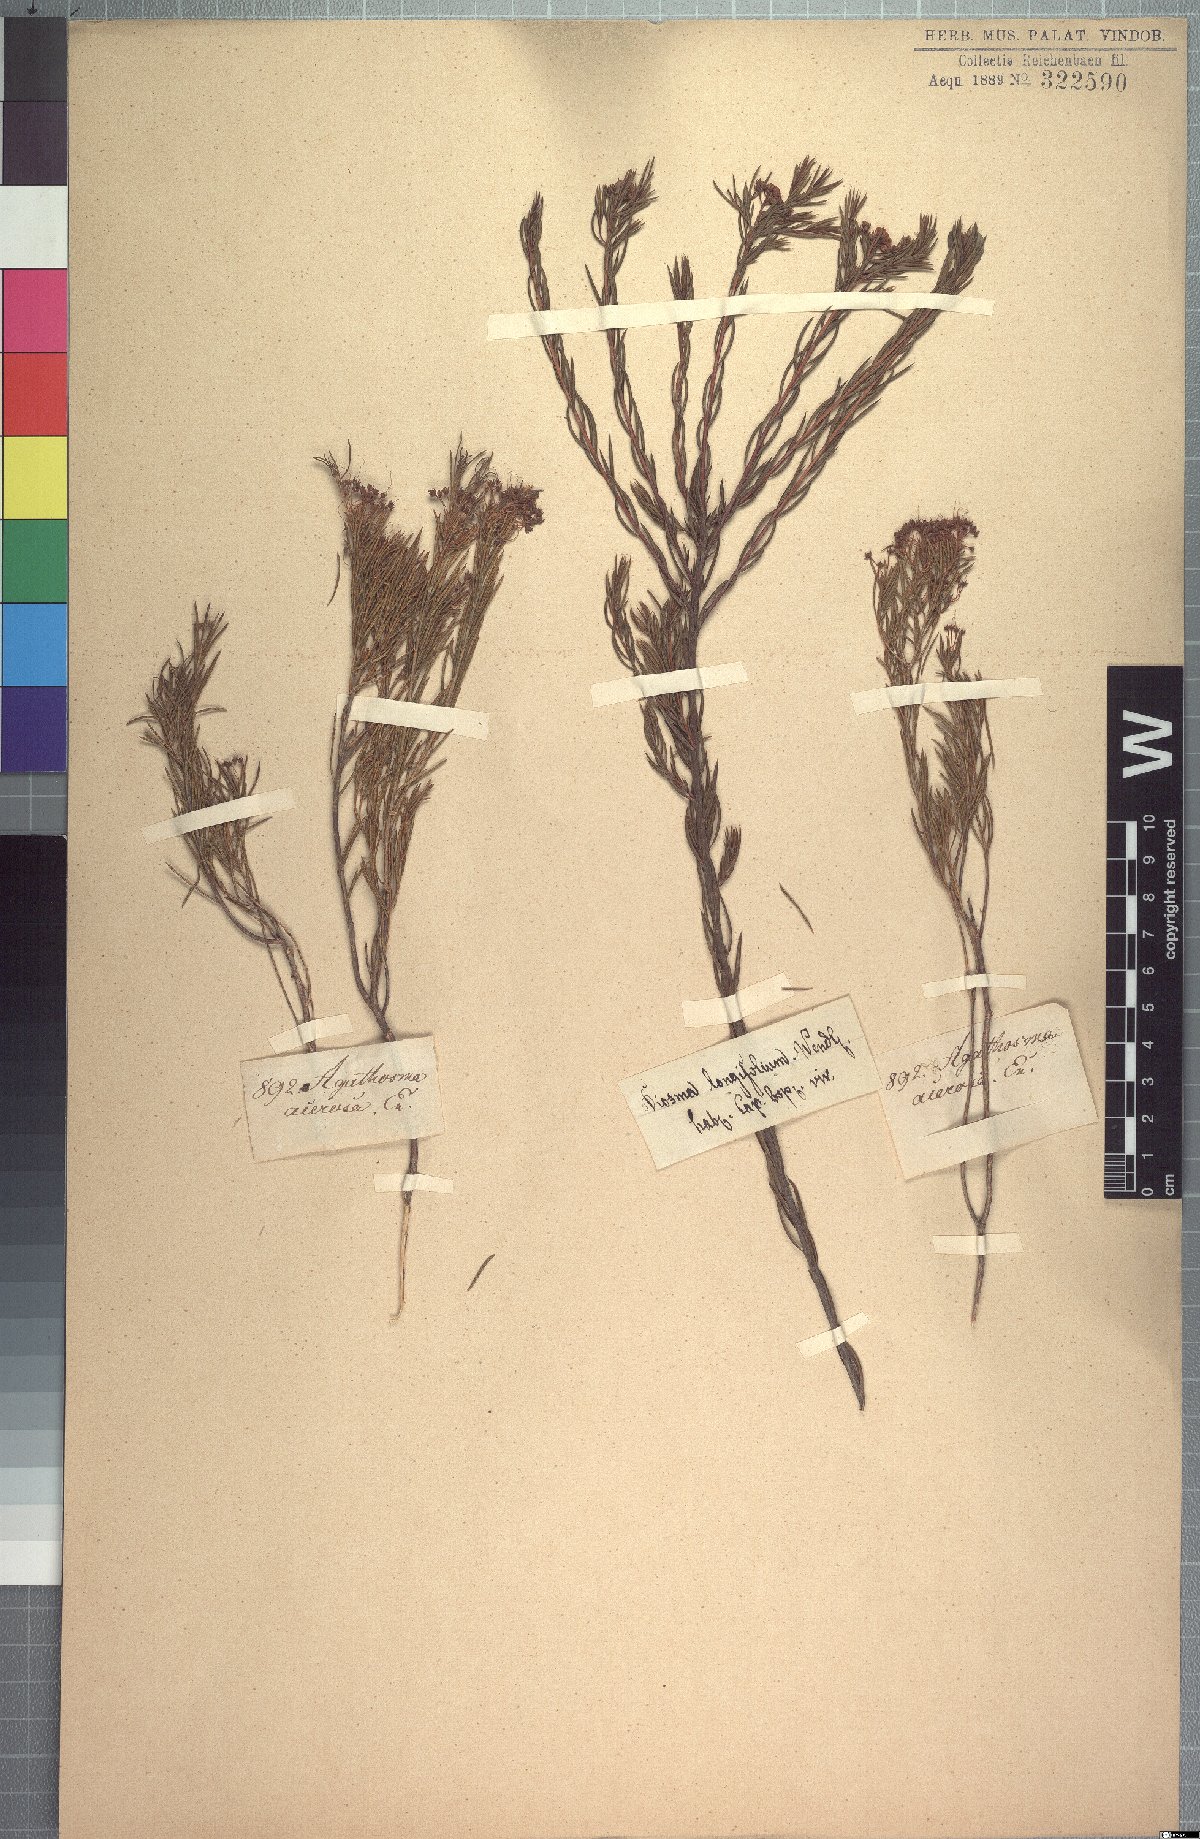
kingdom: Plantae
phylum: Tracheophyta
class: Magnoliopsida
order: Sapindales
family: Rutaceae
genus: Agathosma
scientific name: Agathosma bisulca
